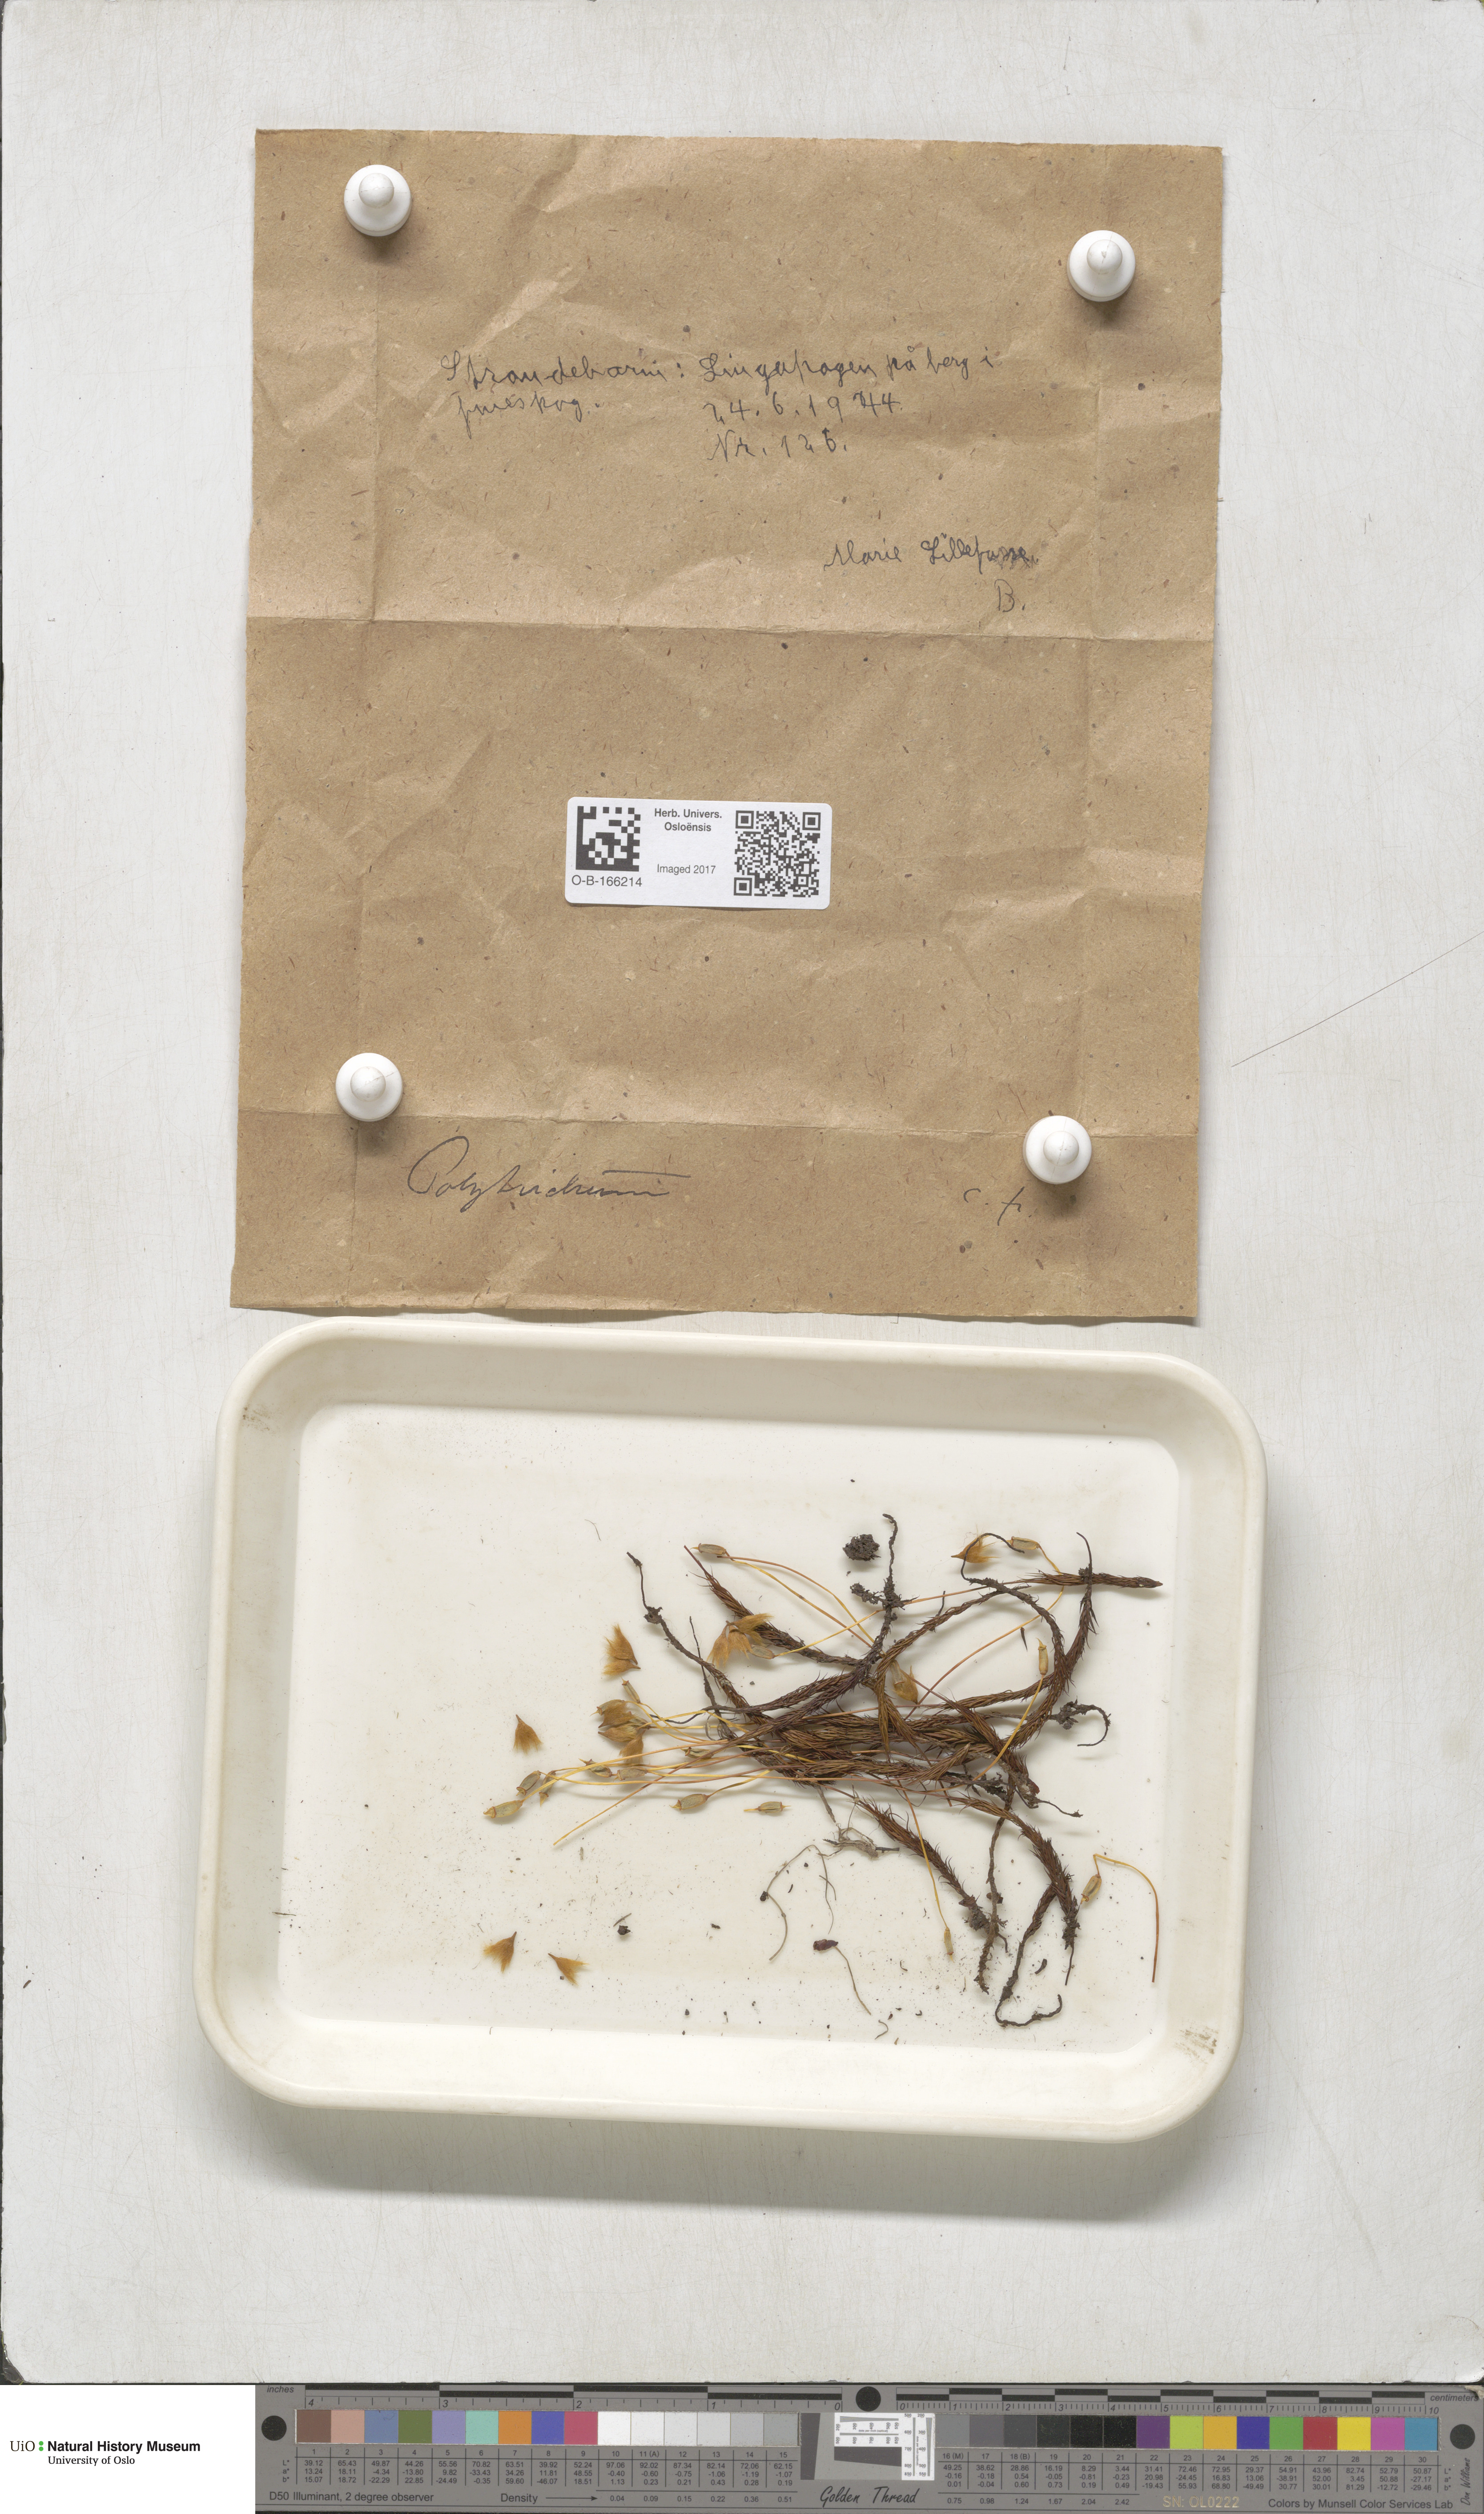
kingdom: Plantae
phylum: Bryophyta
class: Polytrichopsida
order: Polytrichales
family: Polytrichaceae
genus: Polytrichum
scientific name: Polytrichum
